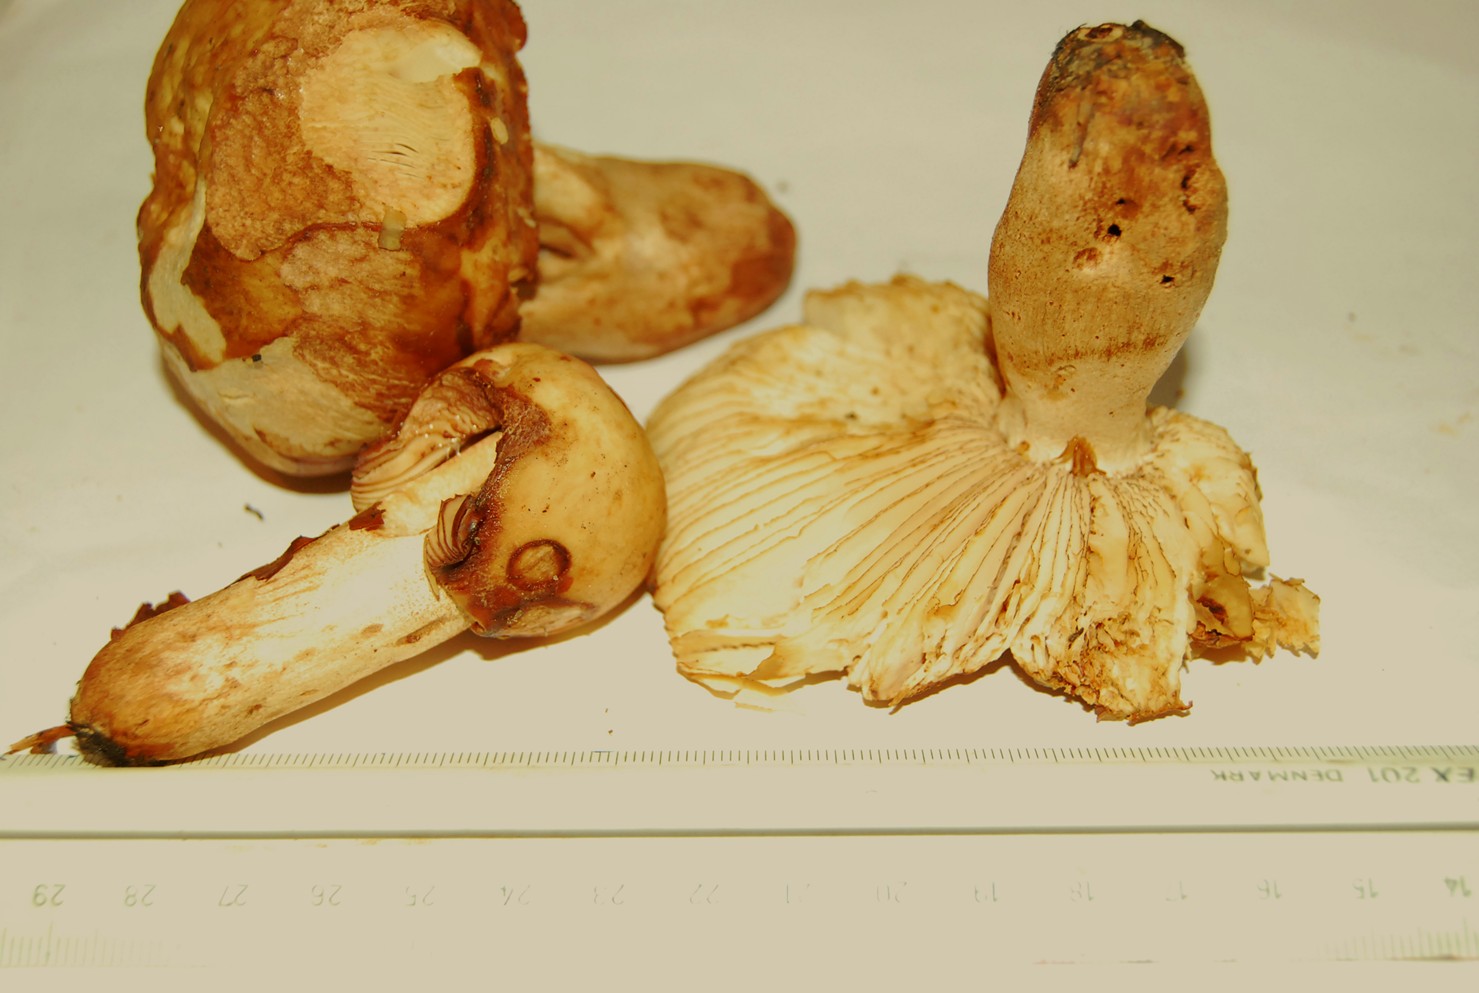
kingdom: Fungi
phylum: Basidiomycota
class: Agaricomycetes
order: Russulales
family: Russulaceae
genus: Russula
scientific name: Russula illota
